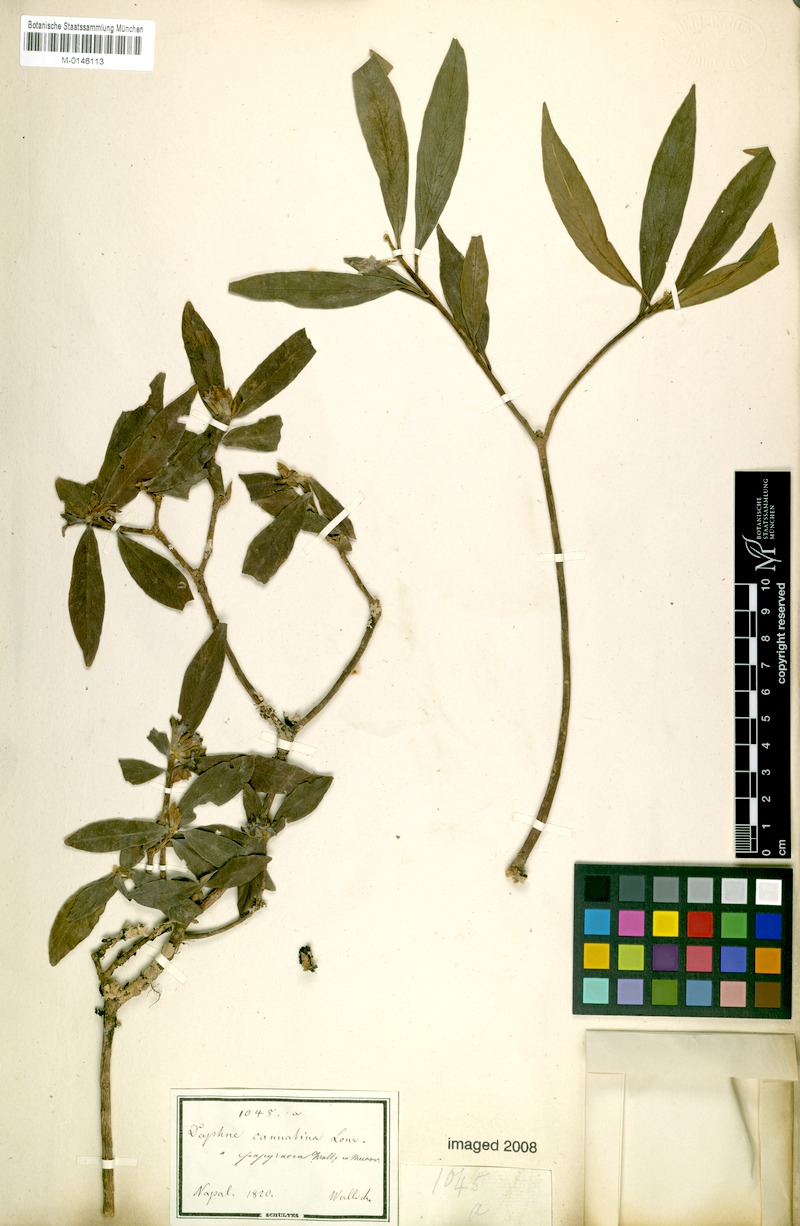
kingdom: Plantae
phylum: Tracheophyta
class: Magnoliopsida
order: Malvales
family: Thymelaeaceae
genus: Daphne
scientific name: Daphne papyracea
